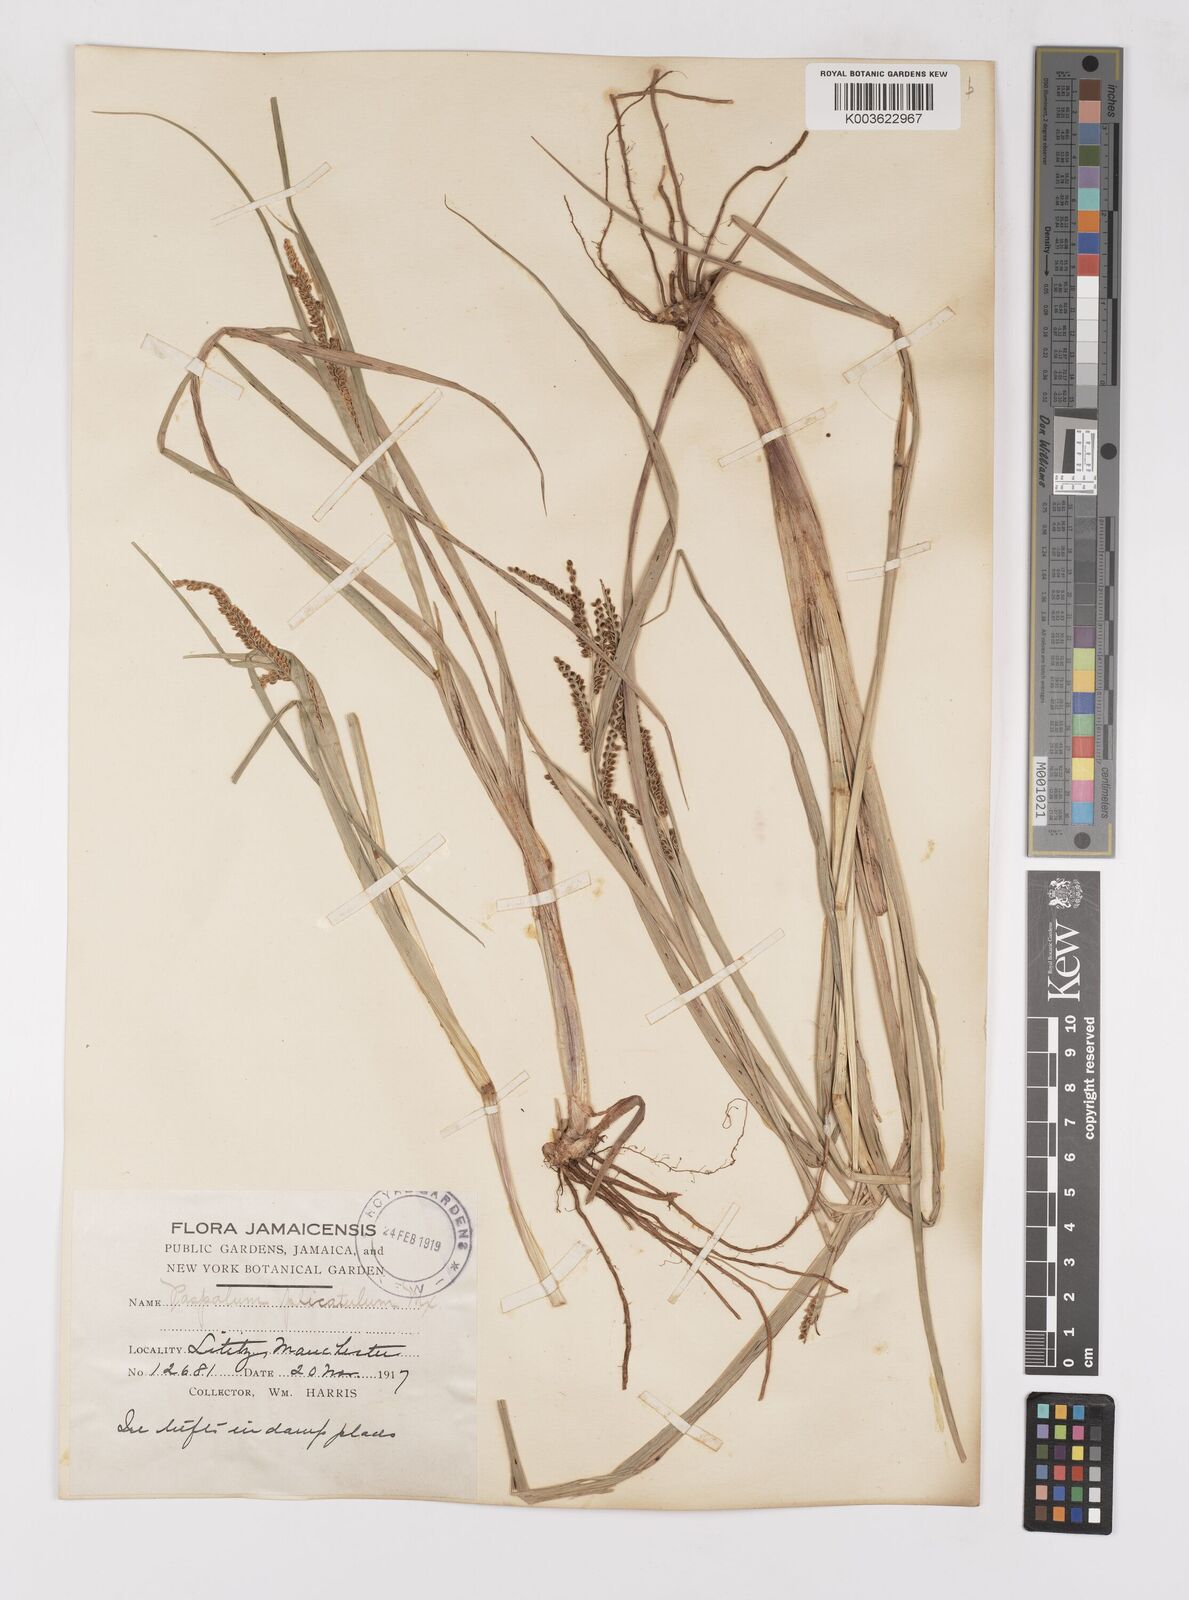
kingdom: Plantae
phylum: Tracheophyta
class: Liliopsida
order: Poales
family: Poaceae
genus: Paspalum
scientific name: Paspalum
